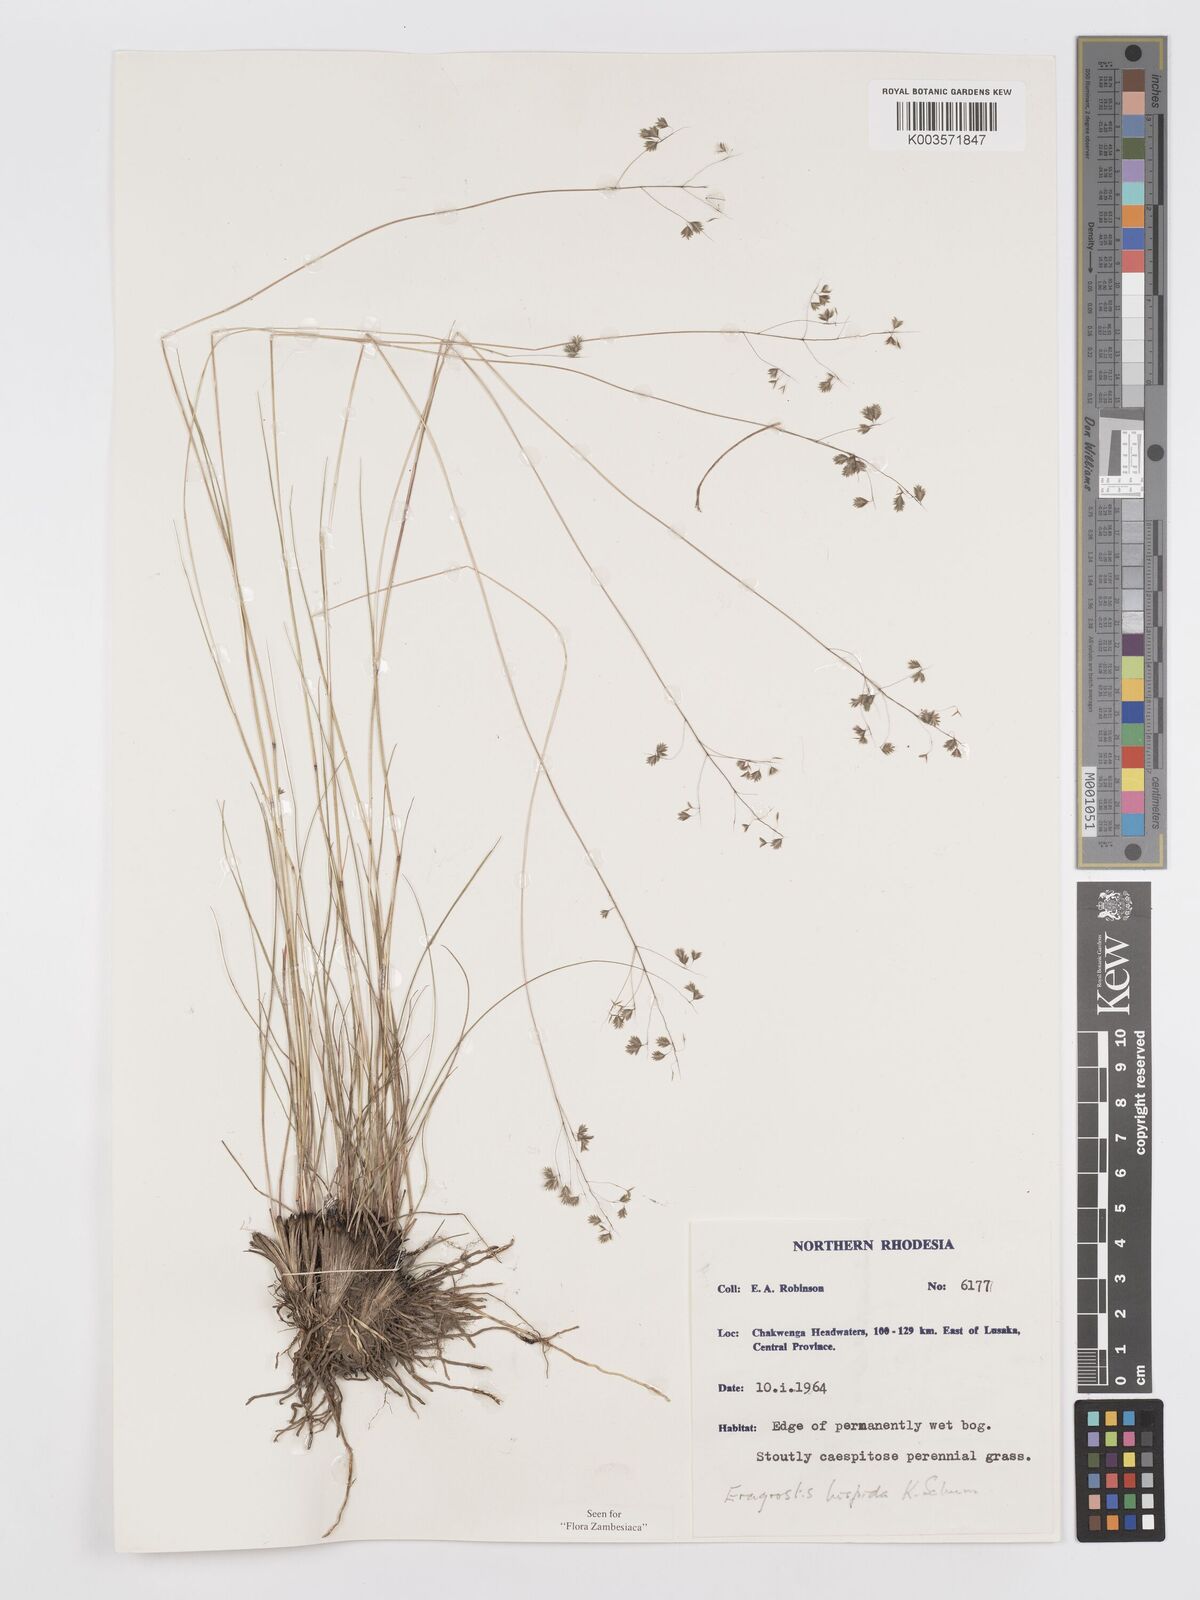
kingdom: Plantae
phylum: Tracheophyta
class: Liliopsida
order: Poales
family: Poaceae
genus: Eragrostis
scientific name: Eragrostis hispida
